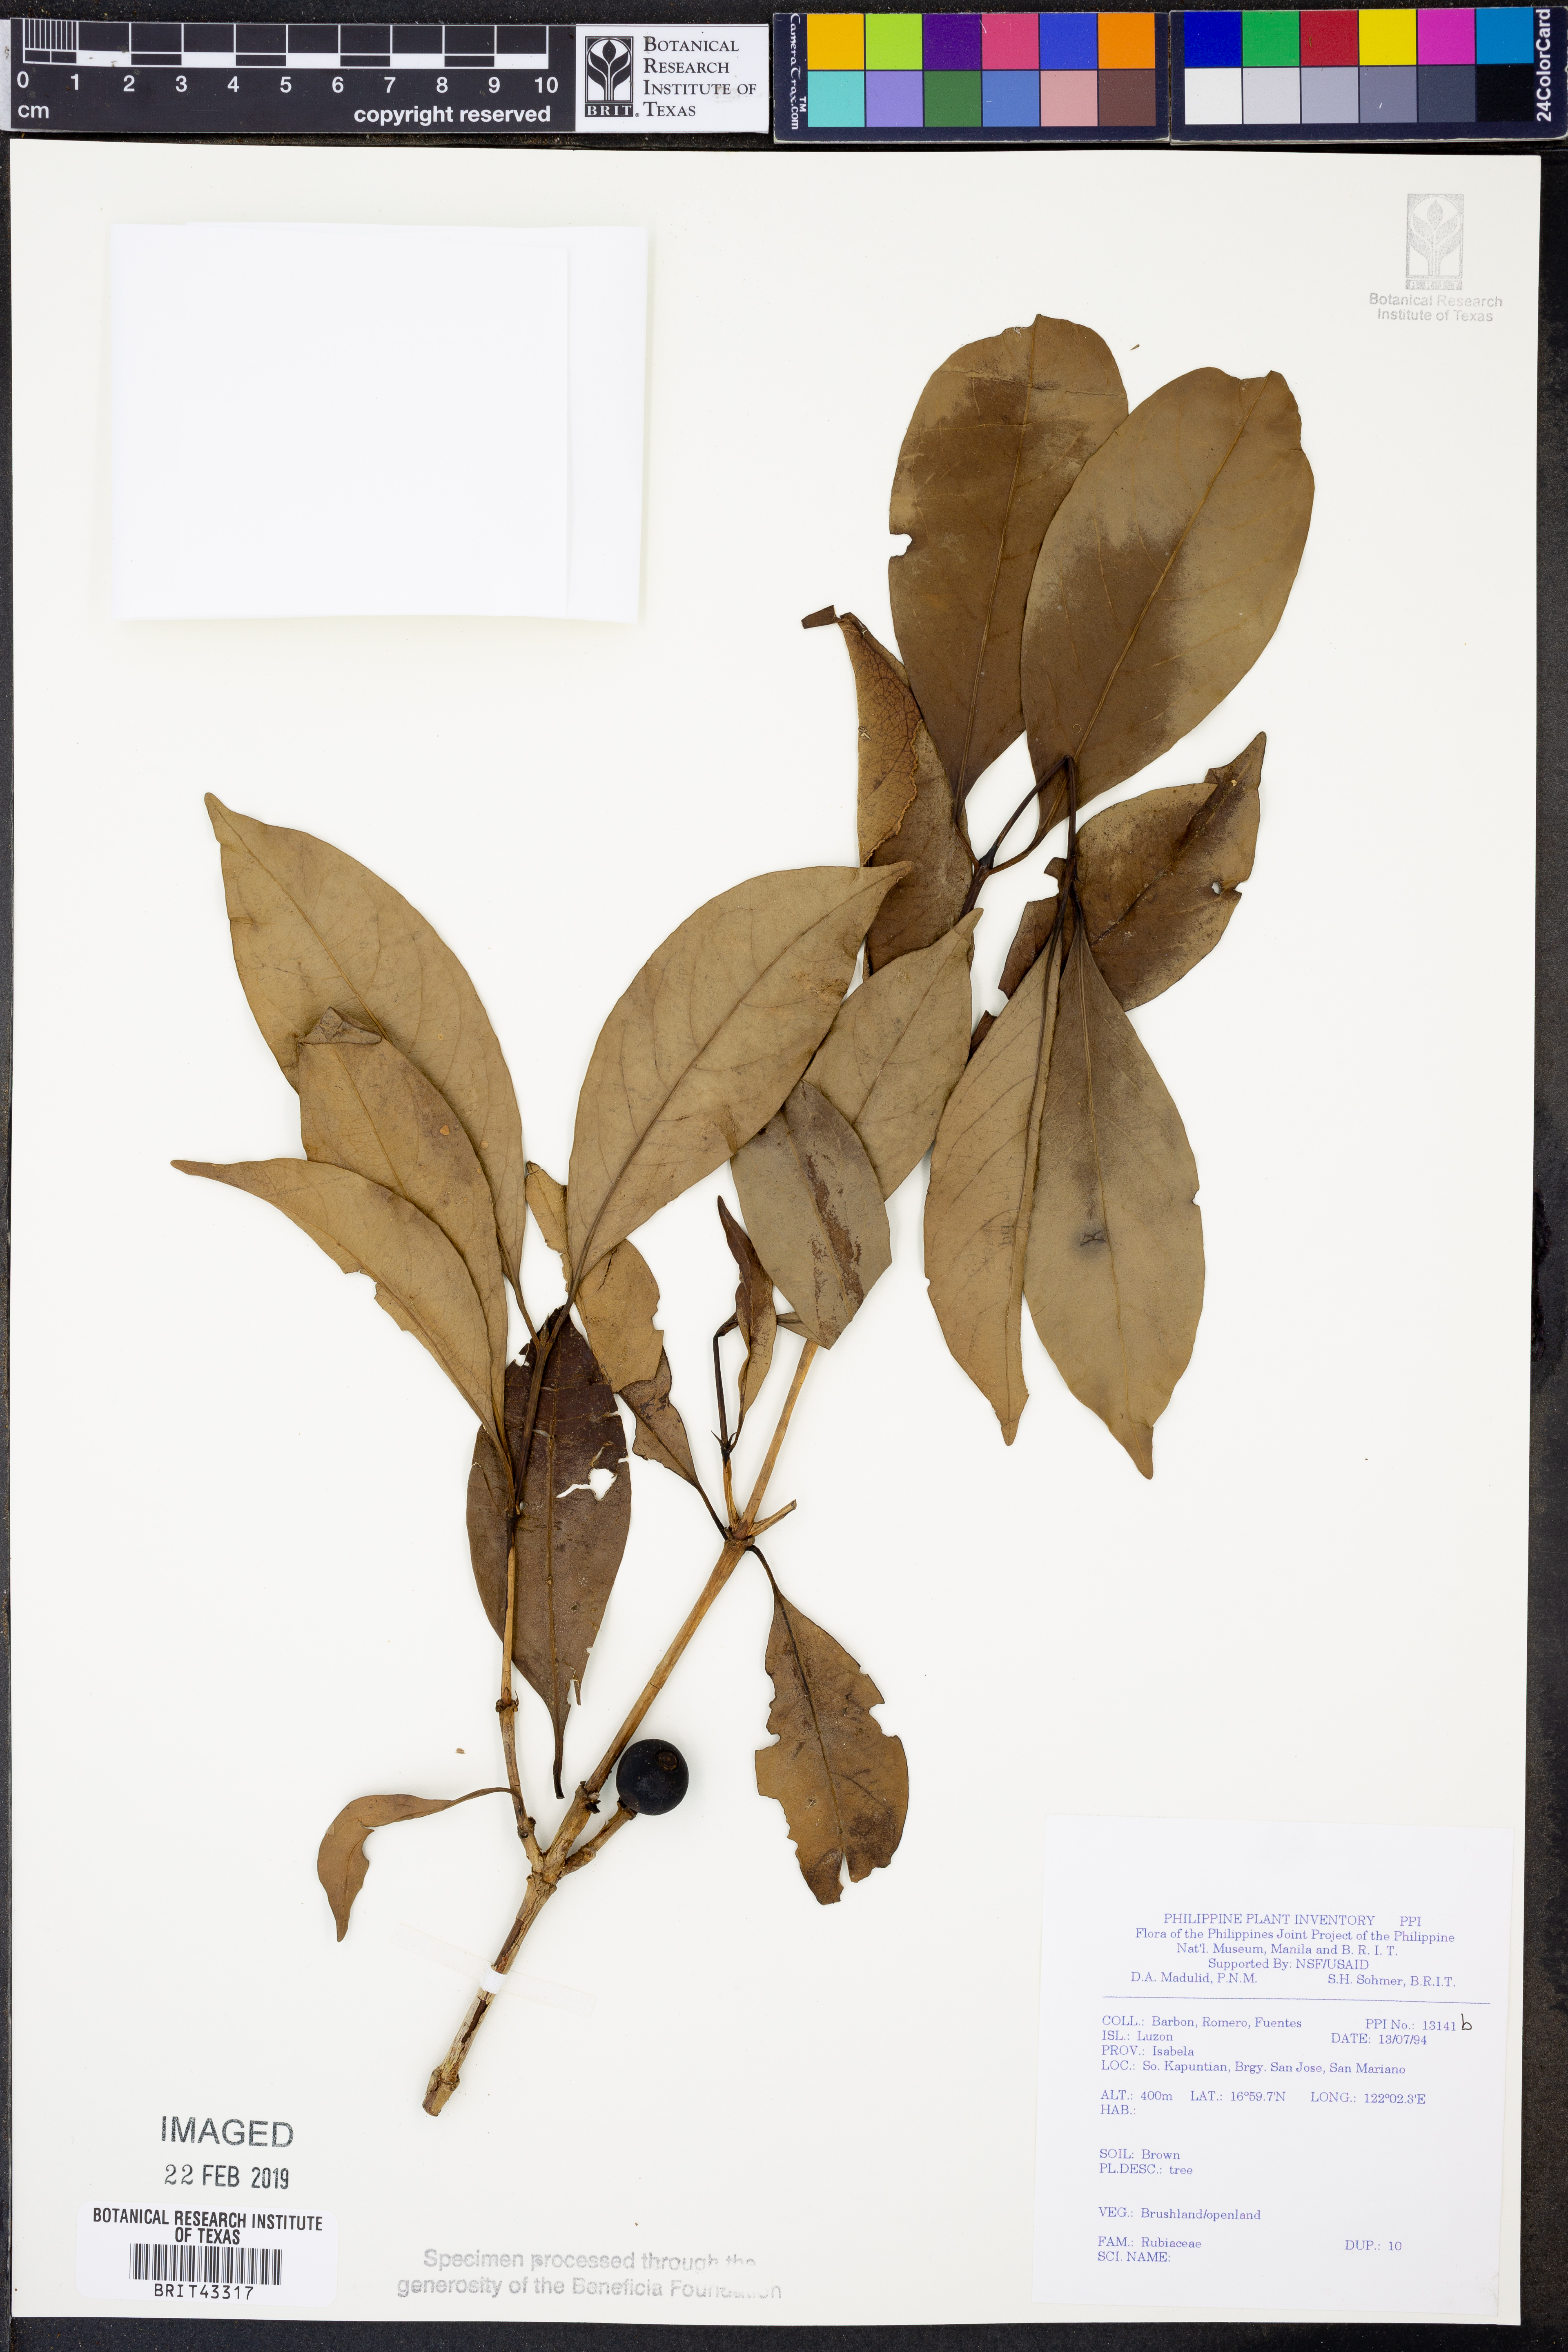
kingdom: Plantae
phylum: Tracheophyta
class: Magnoliopsida
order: Gentianales
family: Rubiaceae
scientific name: Rubiaceae
